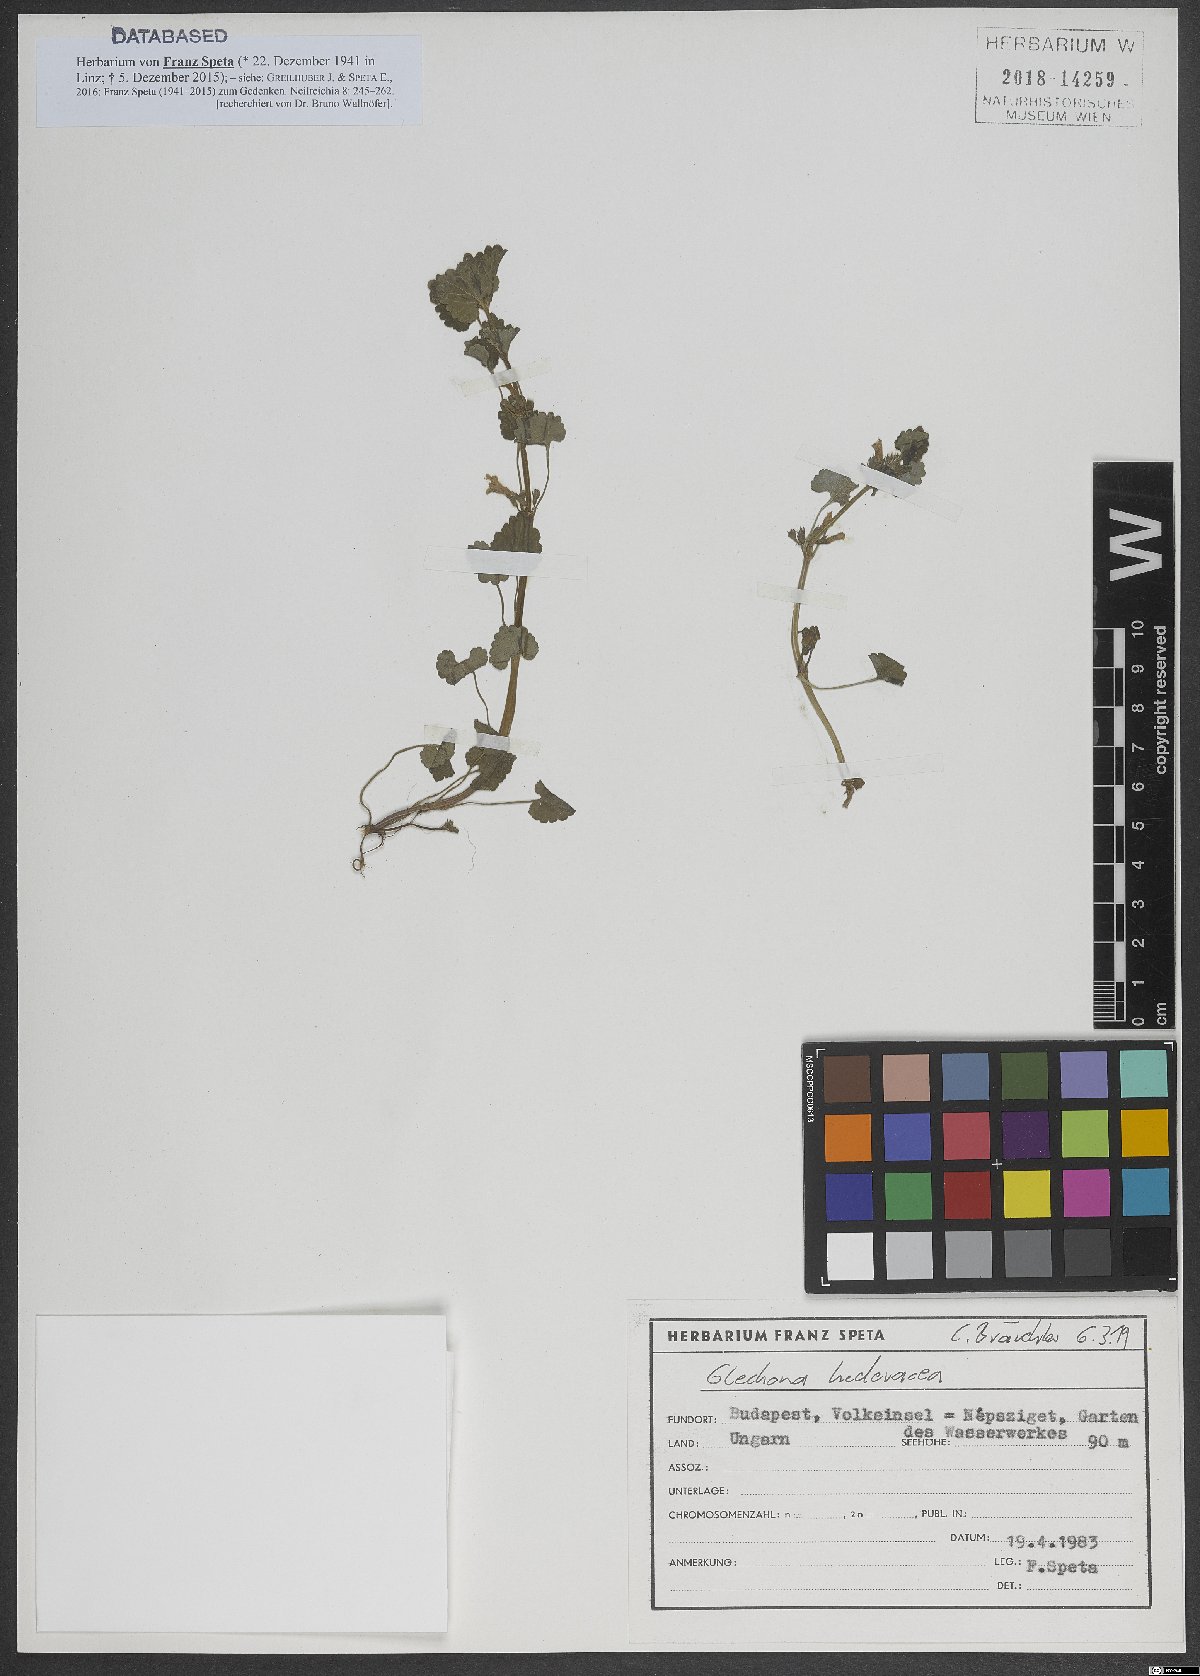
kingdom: Plantae
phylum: Tracheophyta
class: Magnoliopsida
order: Lamiales
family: Lamiaceae
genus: Glechoma
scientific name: Glechoma hederacea
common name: Ground ivy
